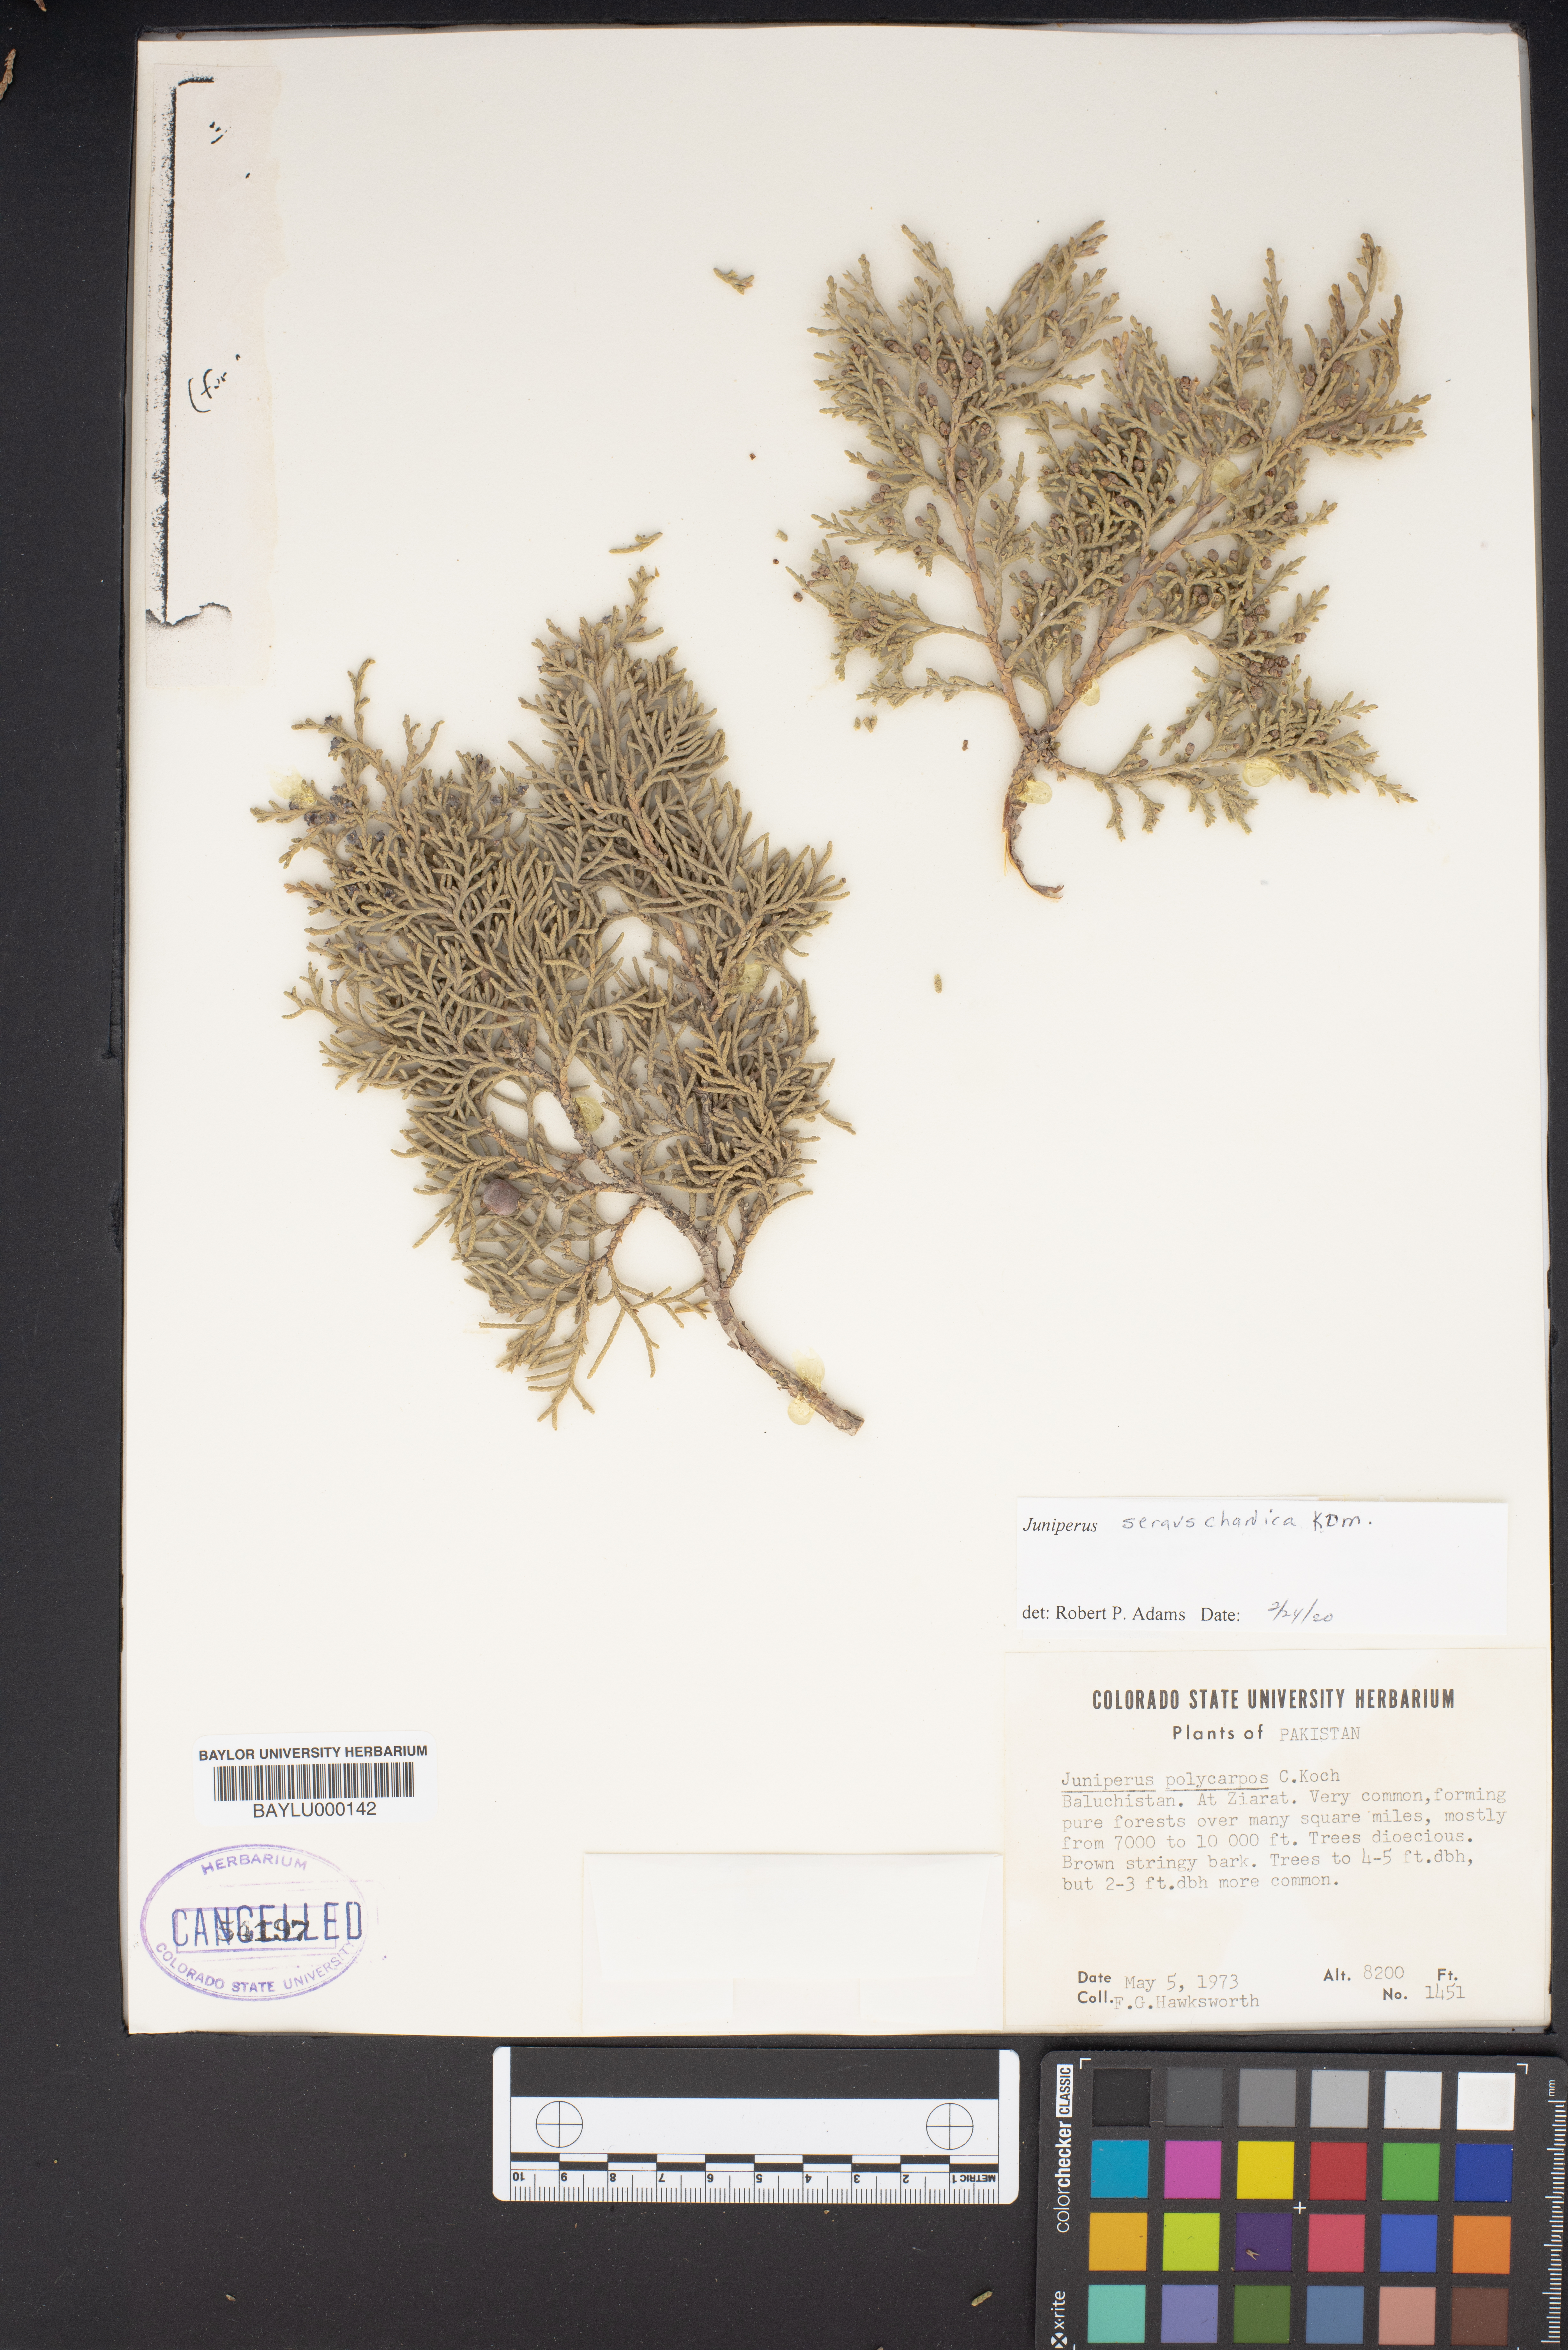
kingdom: Plantae
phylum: Tracheophyta
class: Pinopsida
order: Pinales
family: Cupressaceae
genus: Juniperus
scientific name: Juniperus excelsa
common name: Crimean juniper
